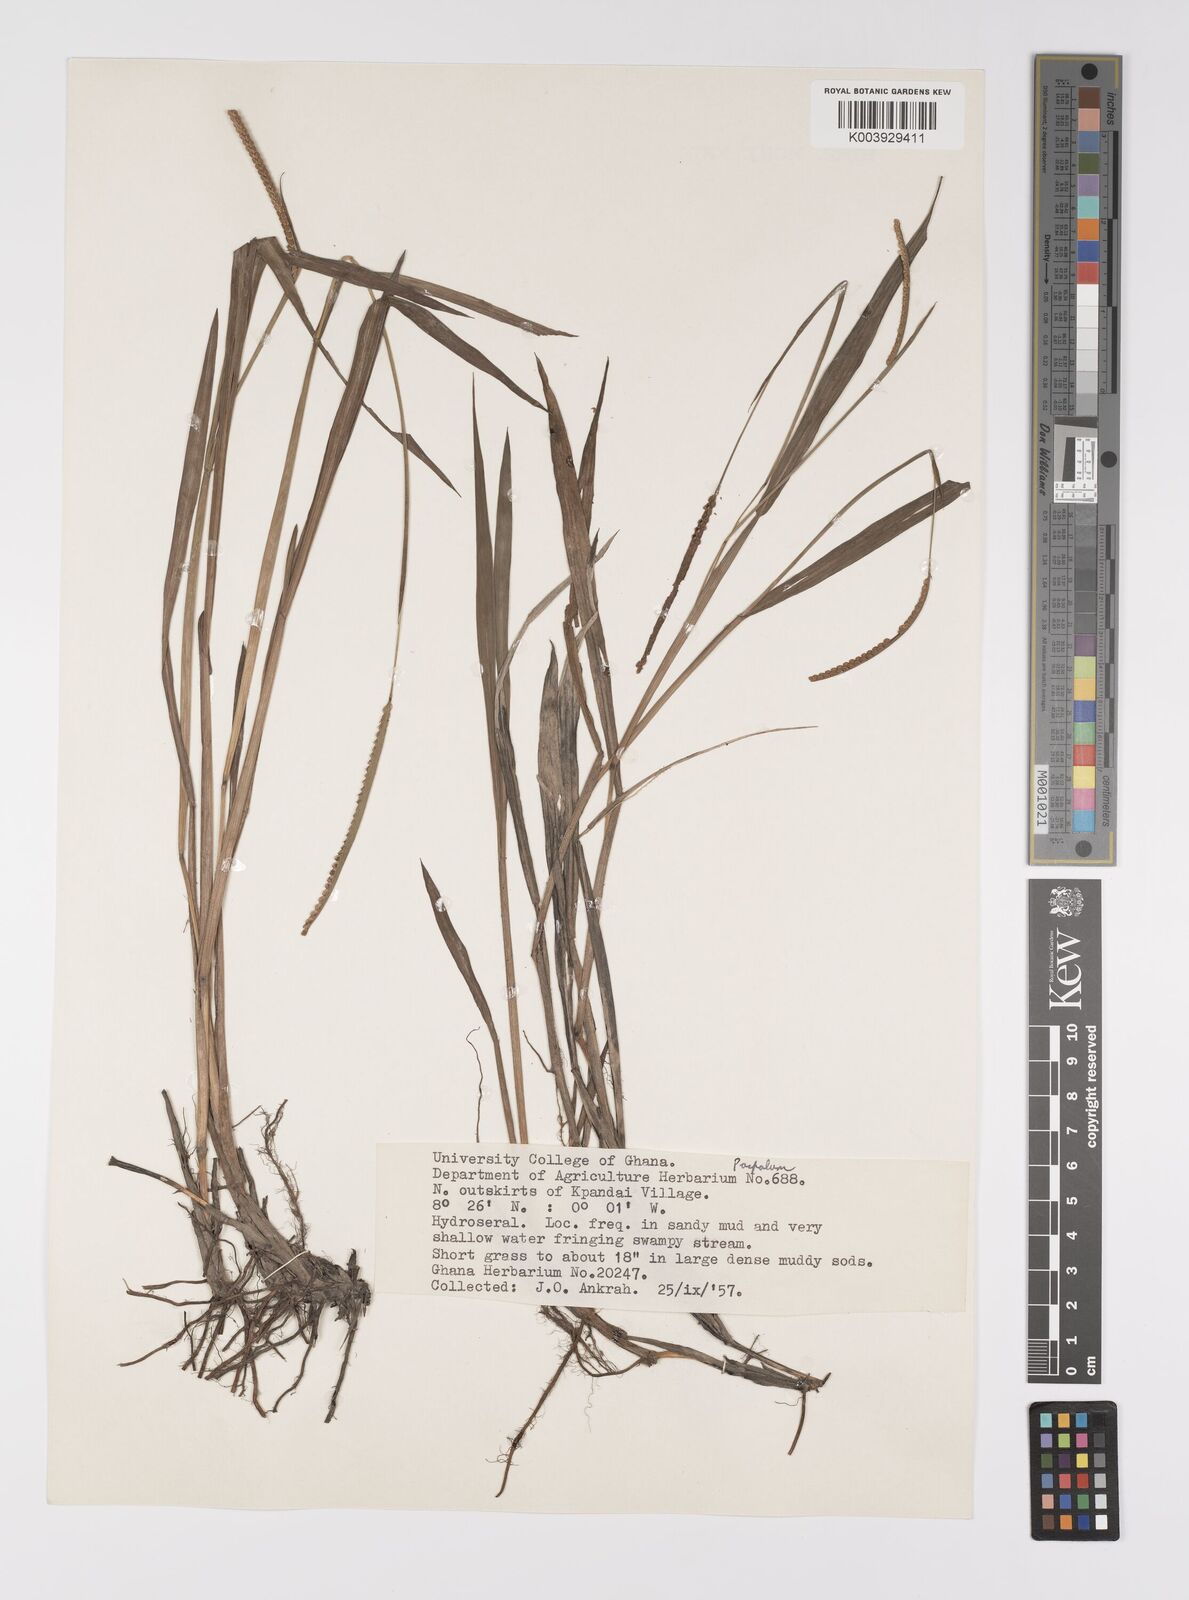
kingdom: Plantae
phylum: Tracheophyta
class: Liliopsida
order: Poales
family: Poaceae
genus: Paspalum
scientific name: Paspalum scrobiculatum
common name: Kodo millet
